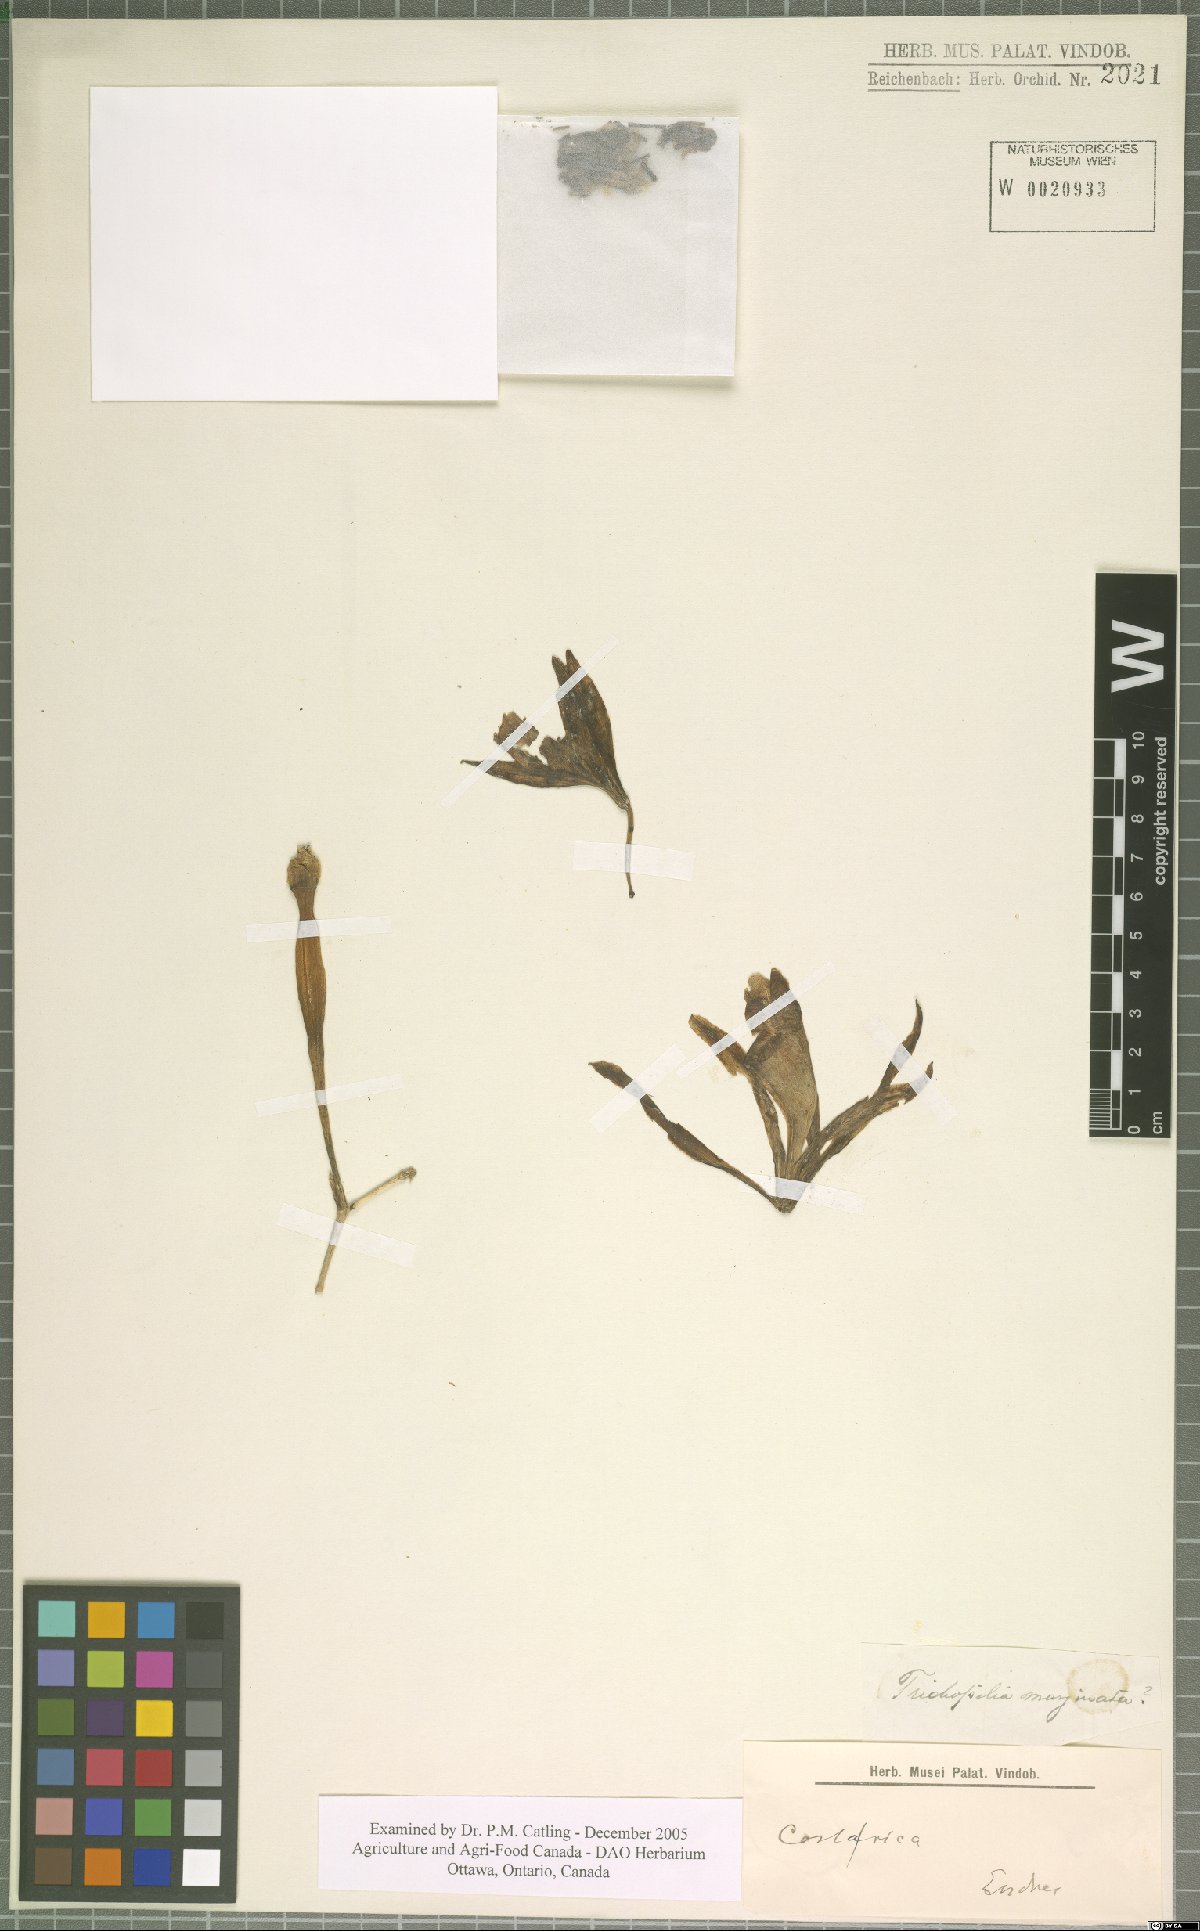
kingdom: Plantae
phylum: Tracheophyta
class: Liliopsida
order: Asparagales
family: Orchidaceae
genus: Trichopilia
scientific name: Trichopilia marginata
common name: Rimmed trichopilia
